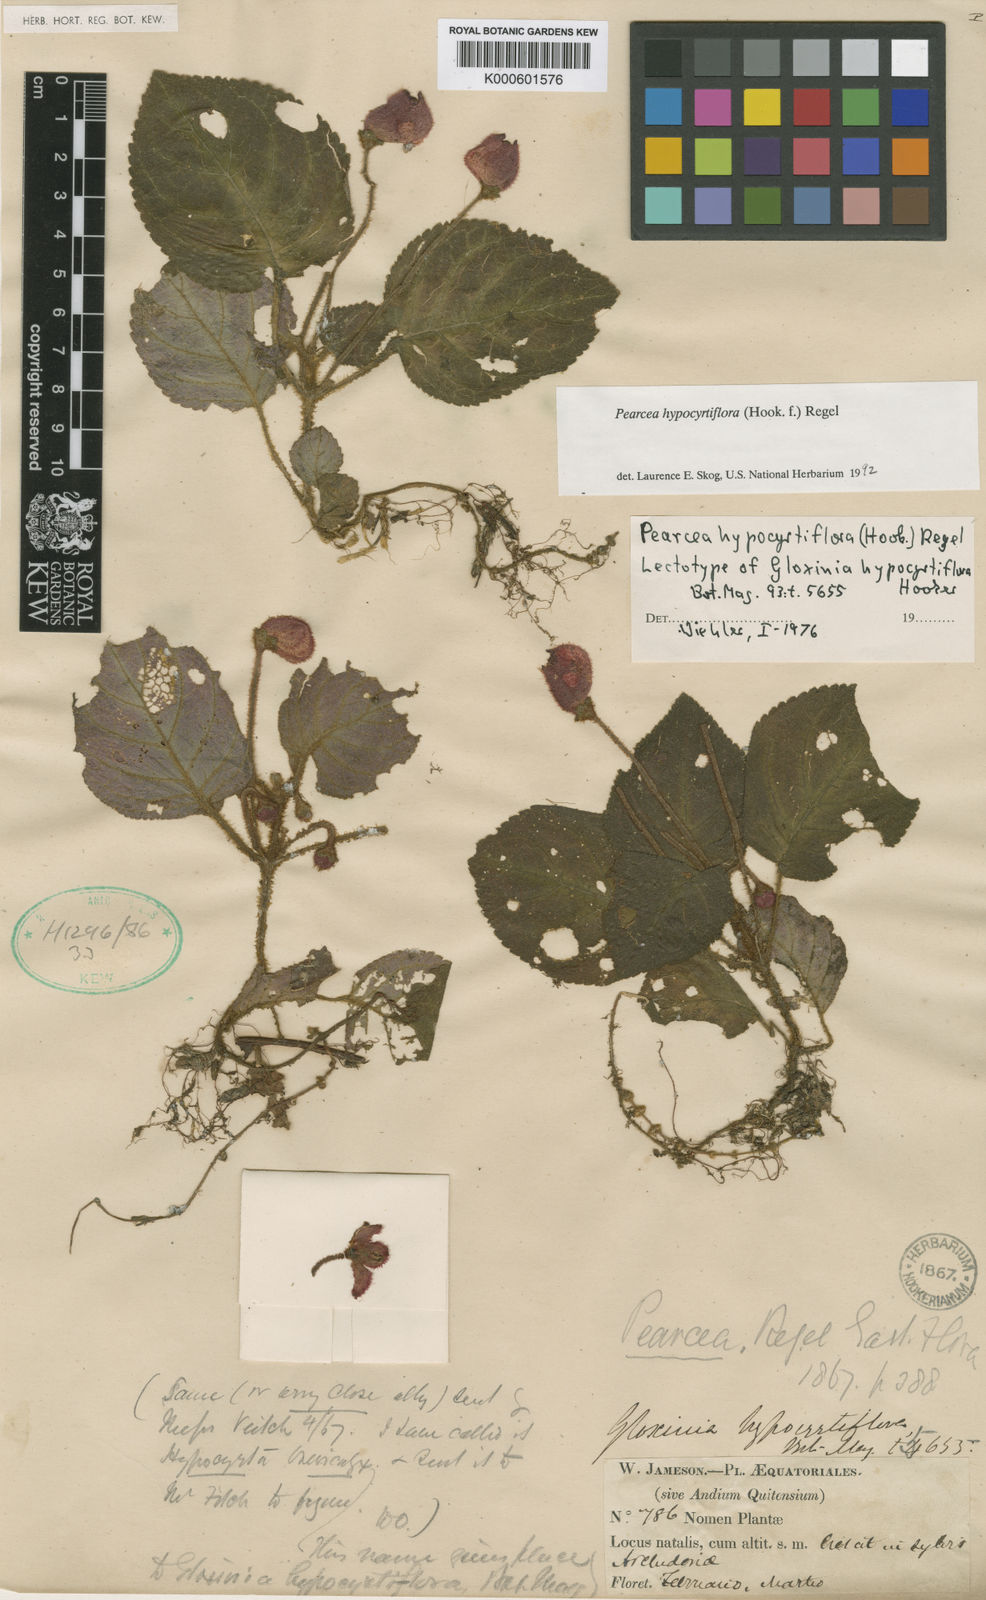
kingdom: Plantae
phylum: Tracheophyta
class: Magnoliopsida
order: Lamiales
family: Gesneriaceae
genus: Pearcea
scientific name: Pearcea reticulata
